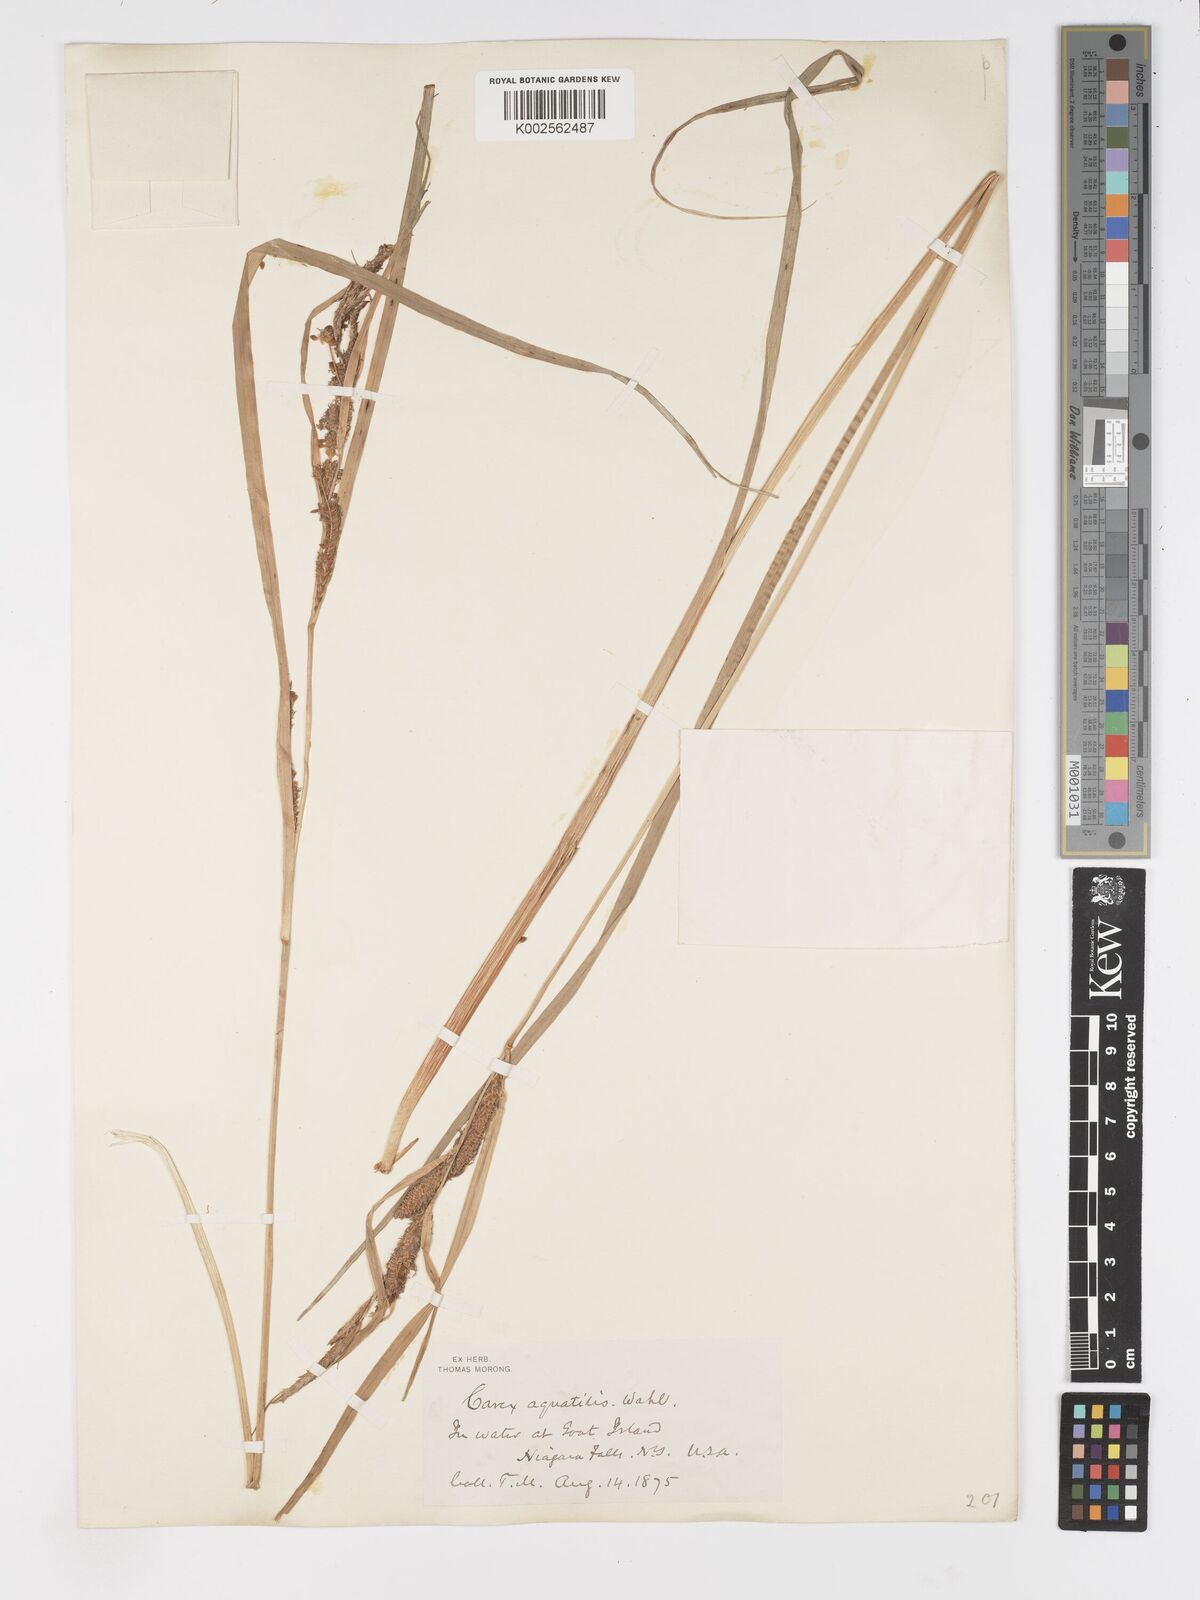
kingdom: Plantae
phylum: Tracheophyta
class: Liliopsida
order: Poales
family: Cyperaceae
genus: Carex
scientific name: Carex
